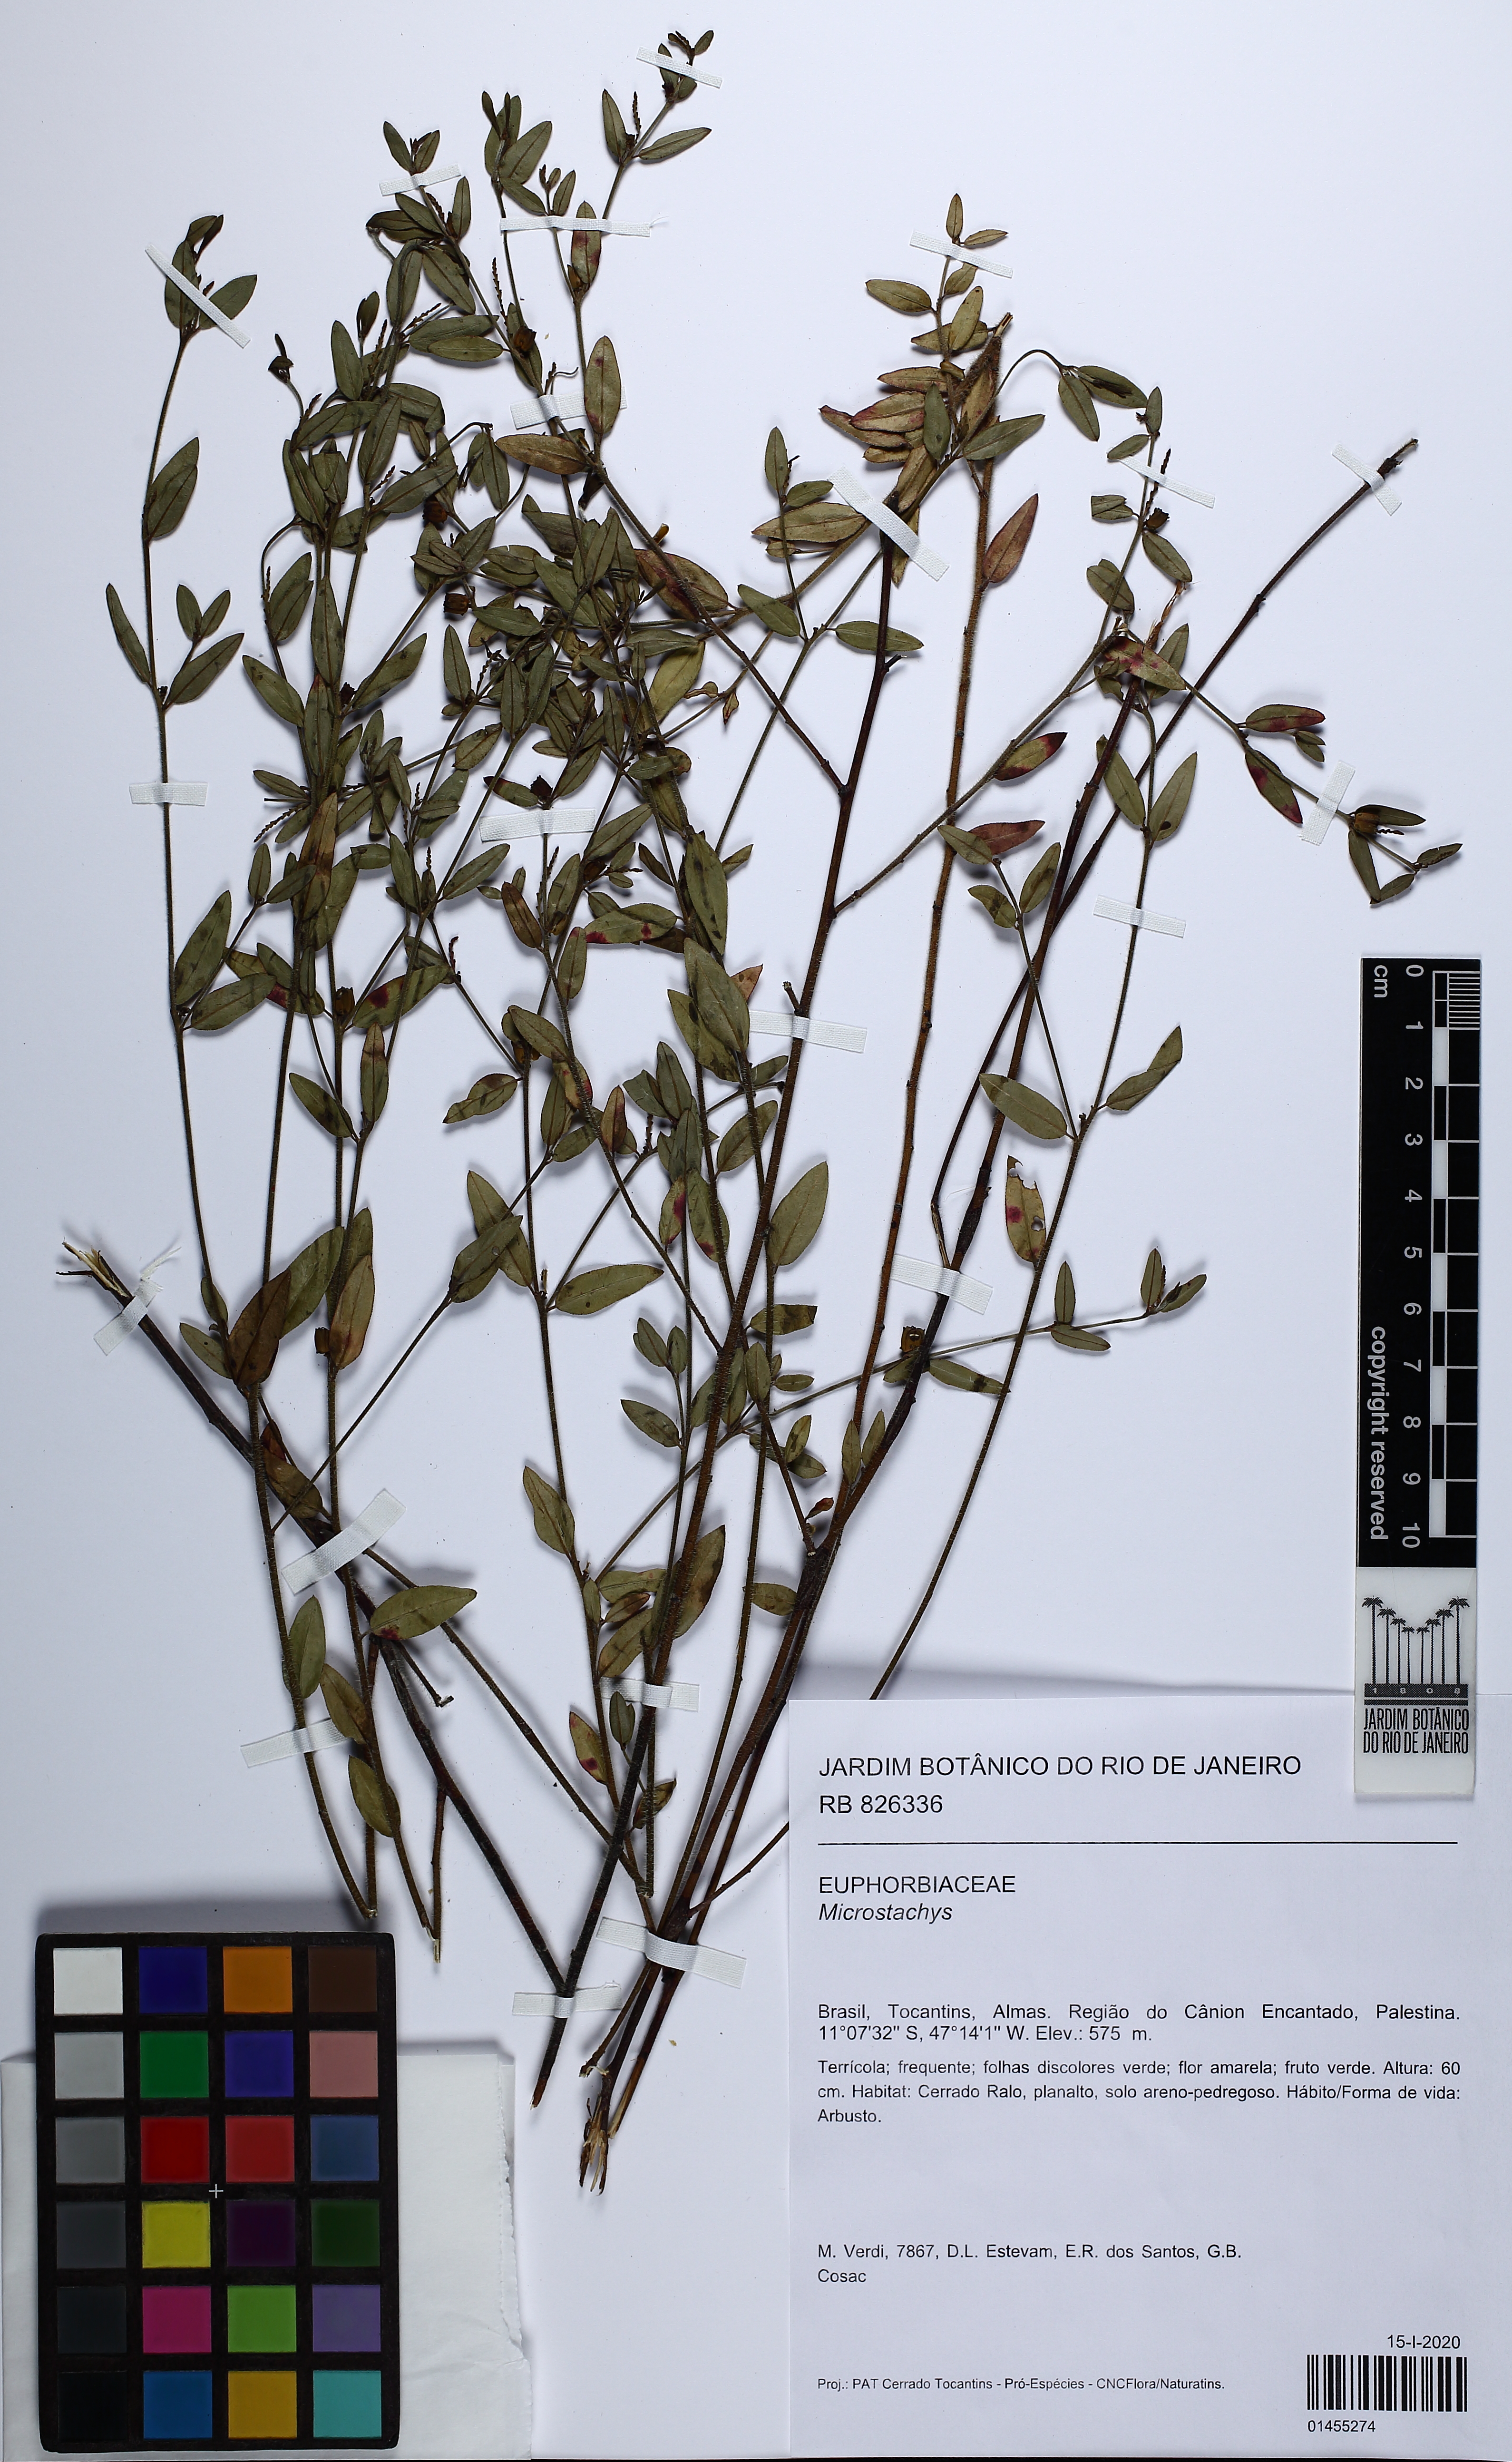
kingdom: Plantae
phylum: Tracheophyta
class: Magnoliopsida
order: Malpighiales
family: Euphorbiaceae
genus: Microstachys
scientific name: Microstachys
